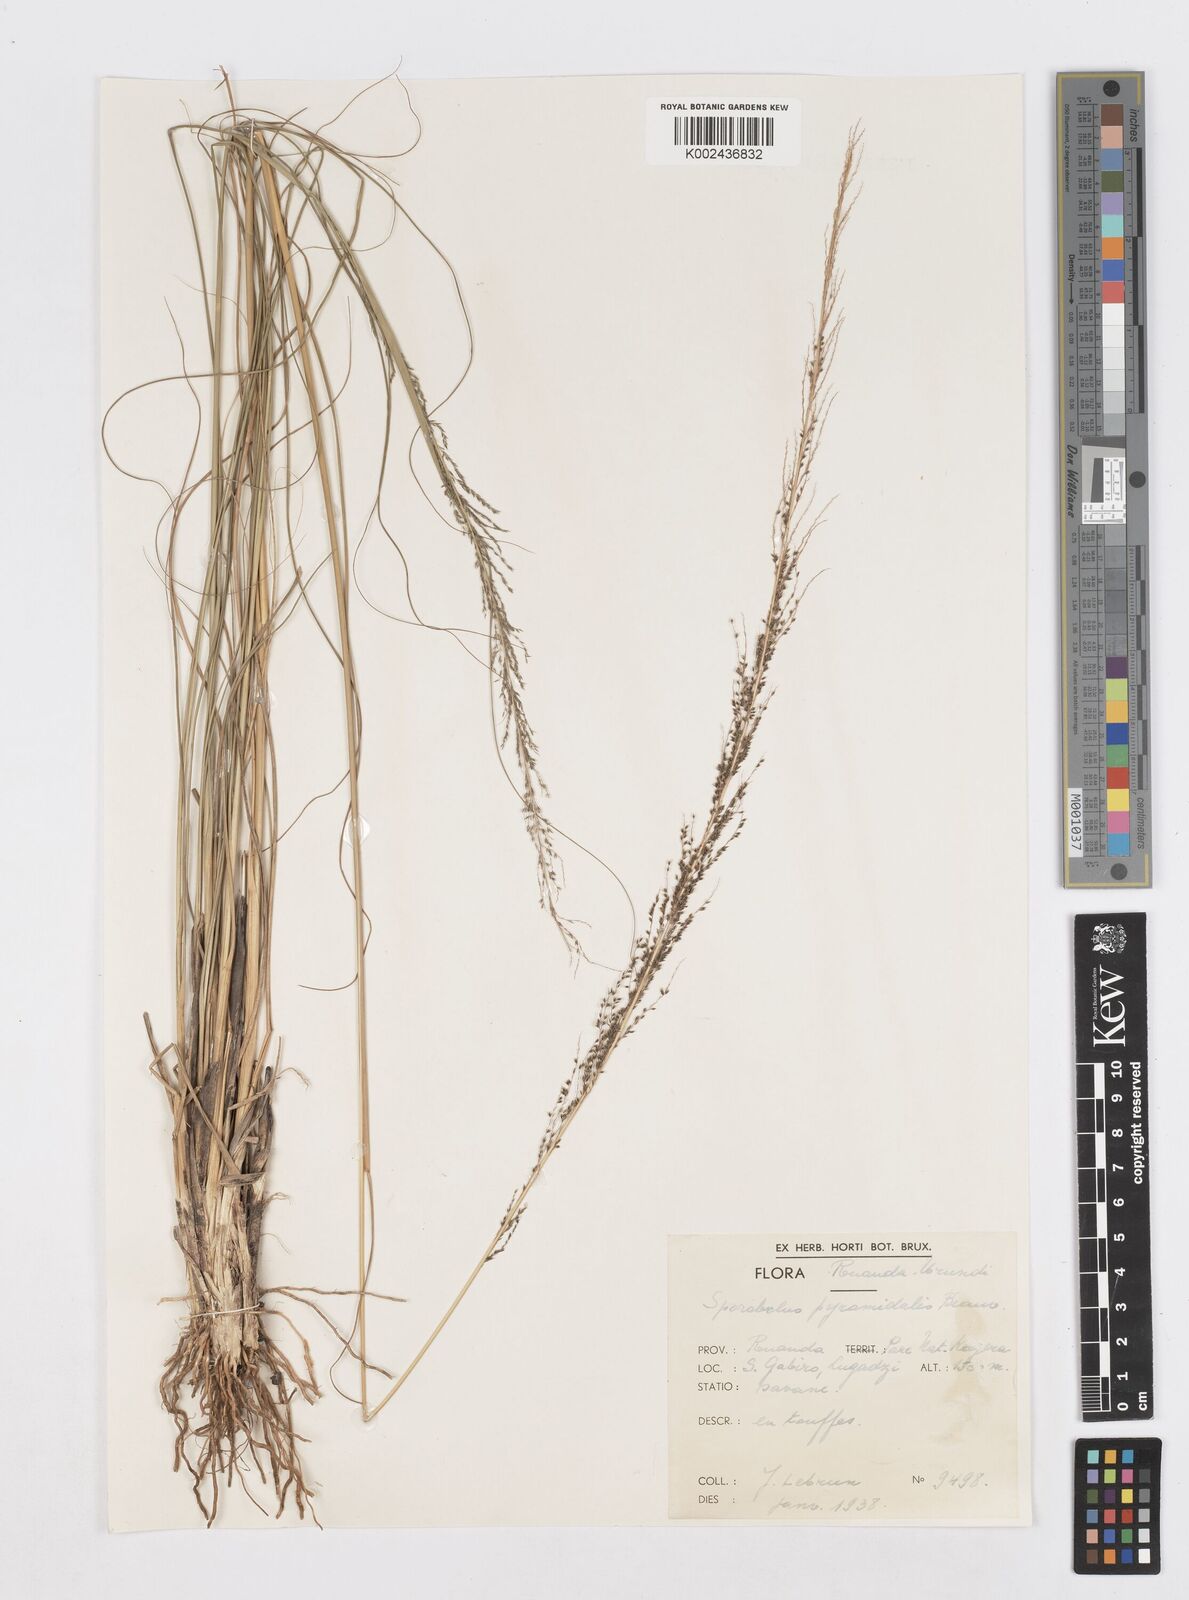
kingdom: Plantae
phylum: Tracheophyta
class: Liliopsida
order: Poales
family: Poaceae
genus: Sporobolus
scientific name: Sporobolus pyramidalis
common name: West indian dropseed
